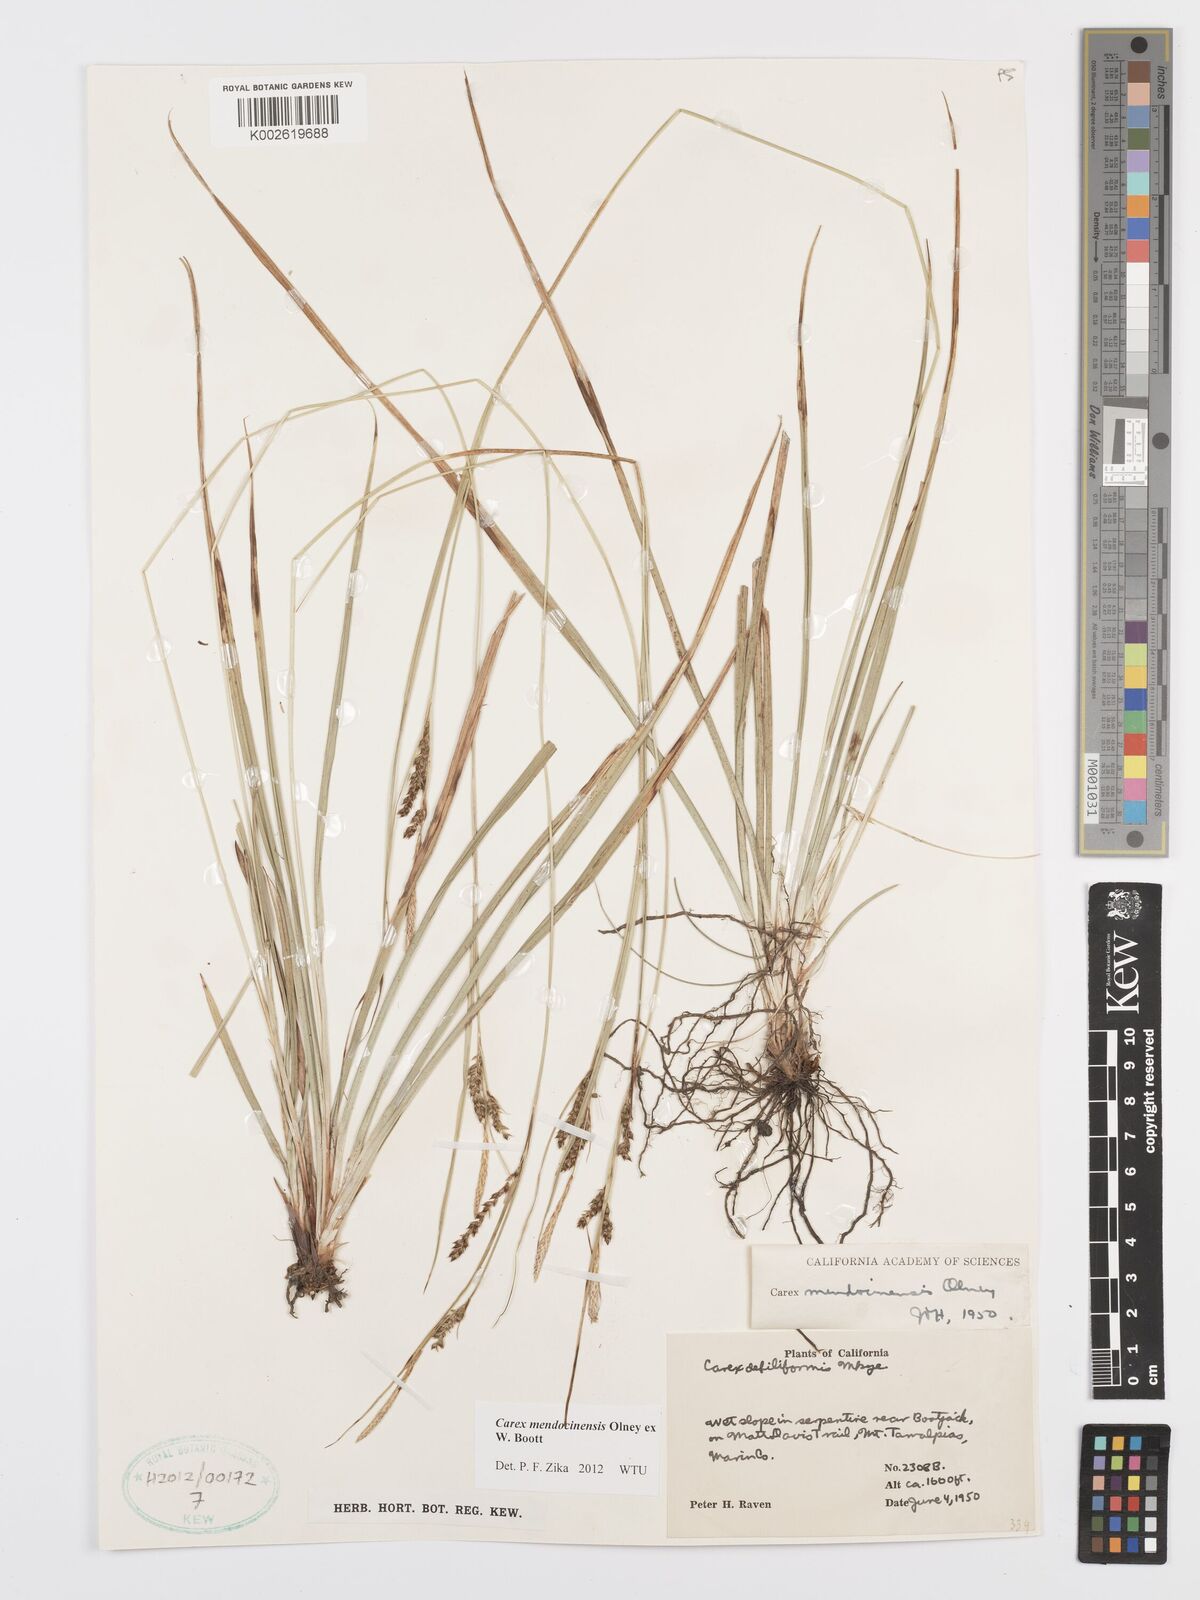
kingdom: Plantae
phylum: Tracheophyta
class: Liliopsida
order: Poales
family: Cyperaceae
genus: Carex
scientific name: Carex mendocinensis
